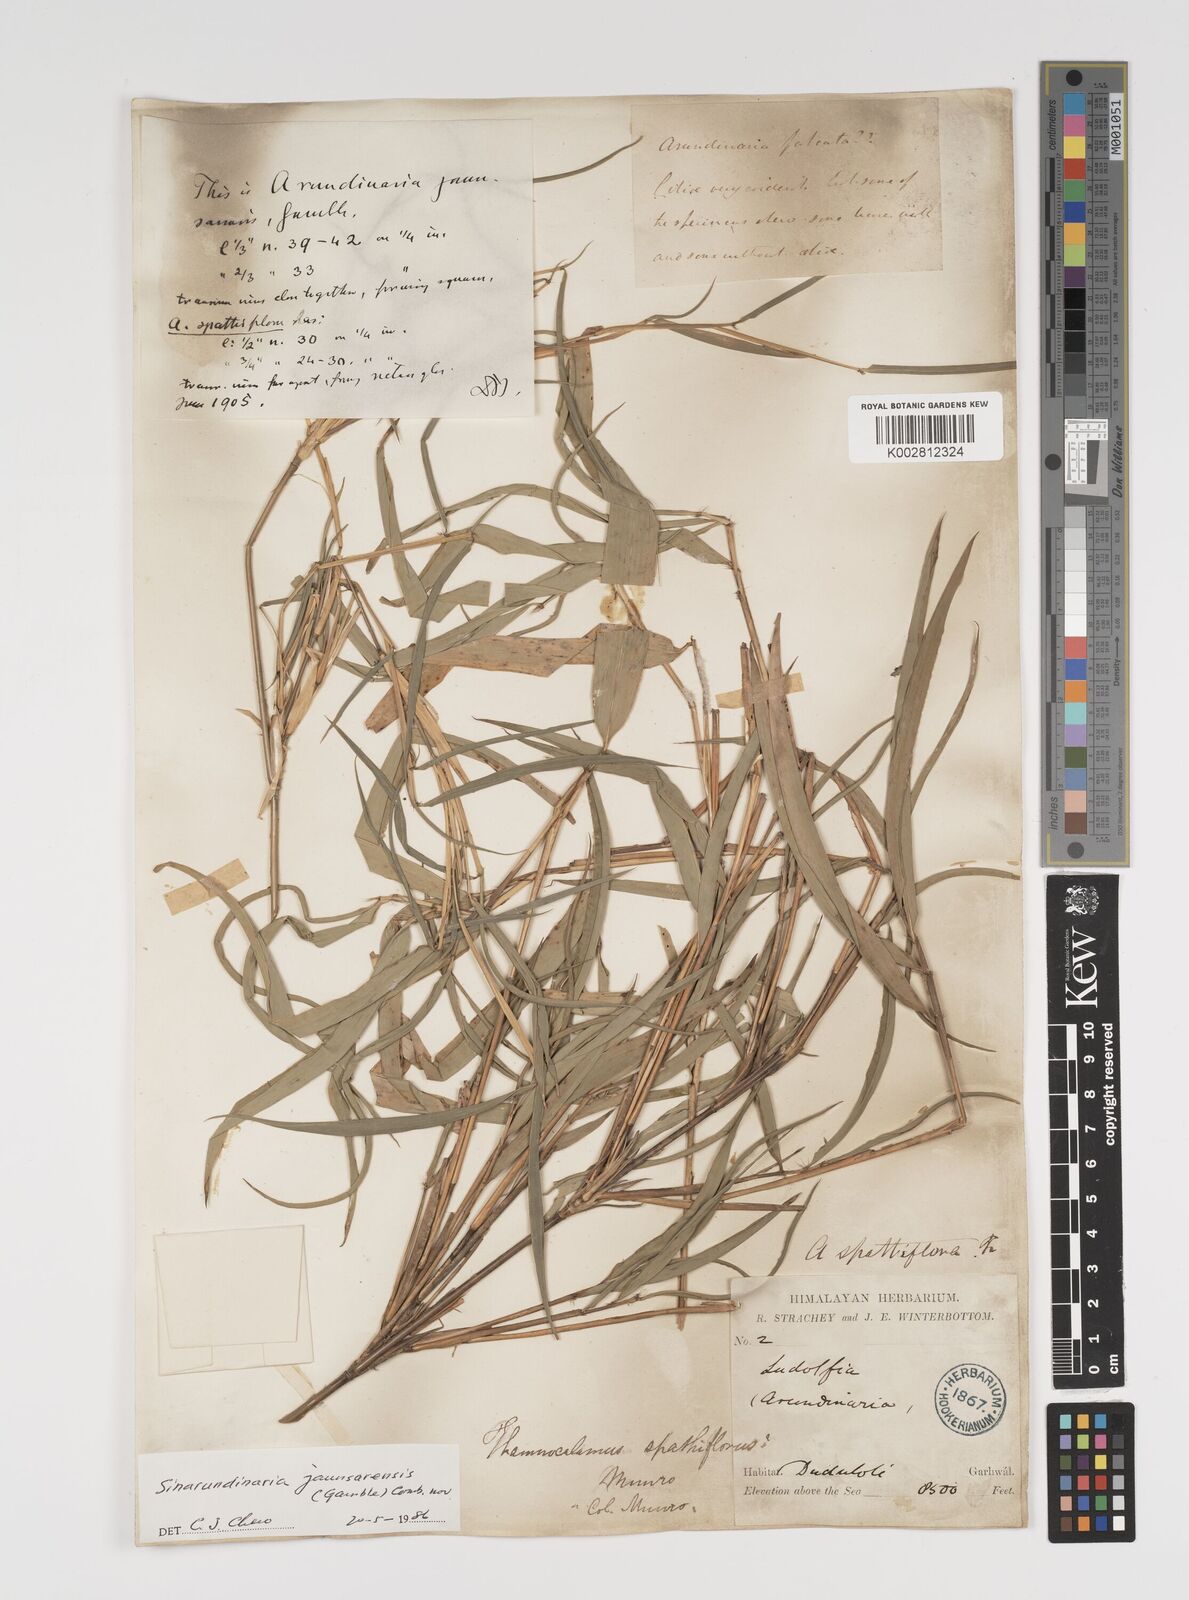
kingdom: Plantae
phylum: Tracheophyta
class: Liliopsida
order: Poales
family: Poaceae
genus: Yushania
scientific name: Yushania anceps
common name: Indian fountain-bamboo
